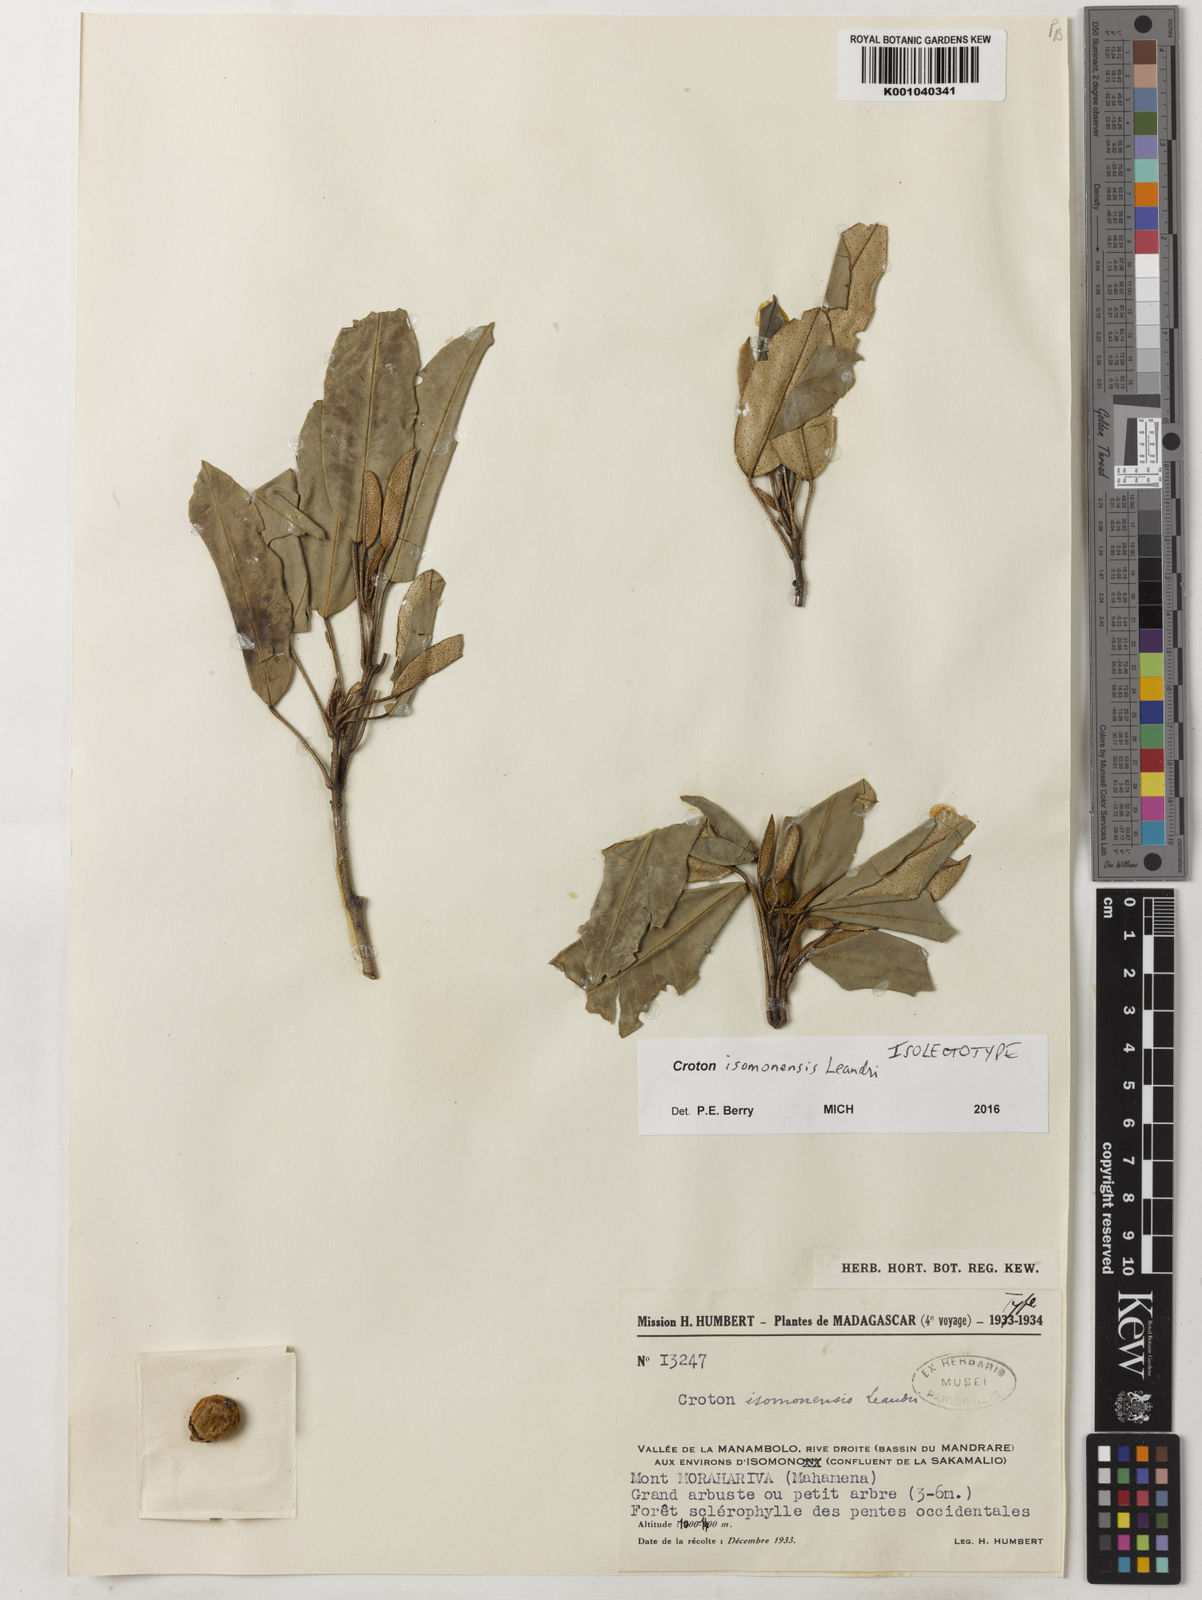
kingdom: Plantae
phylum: Tracheophyta
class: Magnoliopsida
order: Malpighiales
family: Euphorbiaceae
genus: Croton
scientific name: Croton isomonensis
